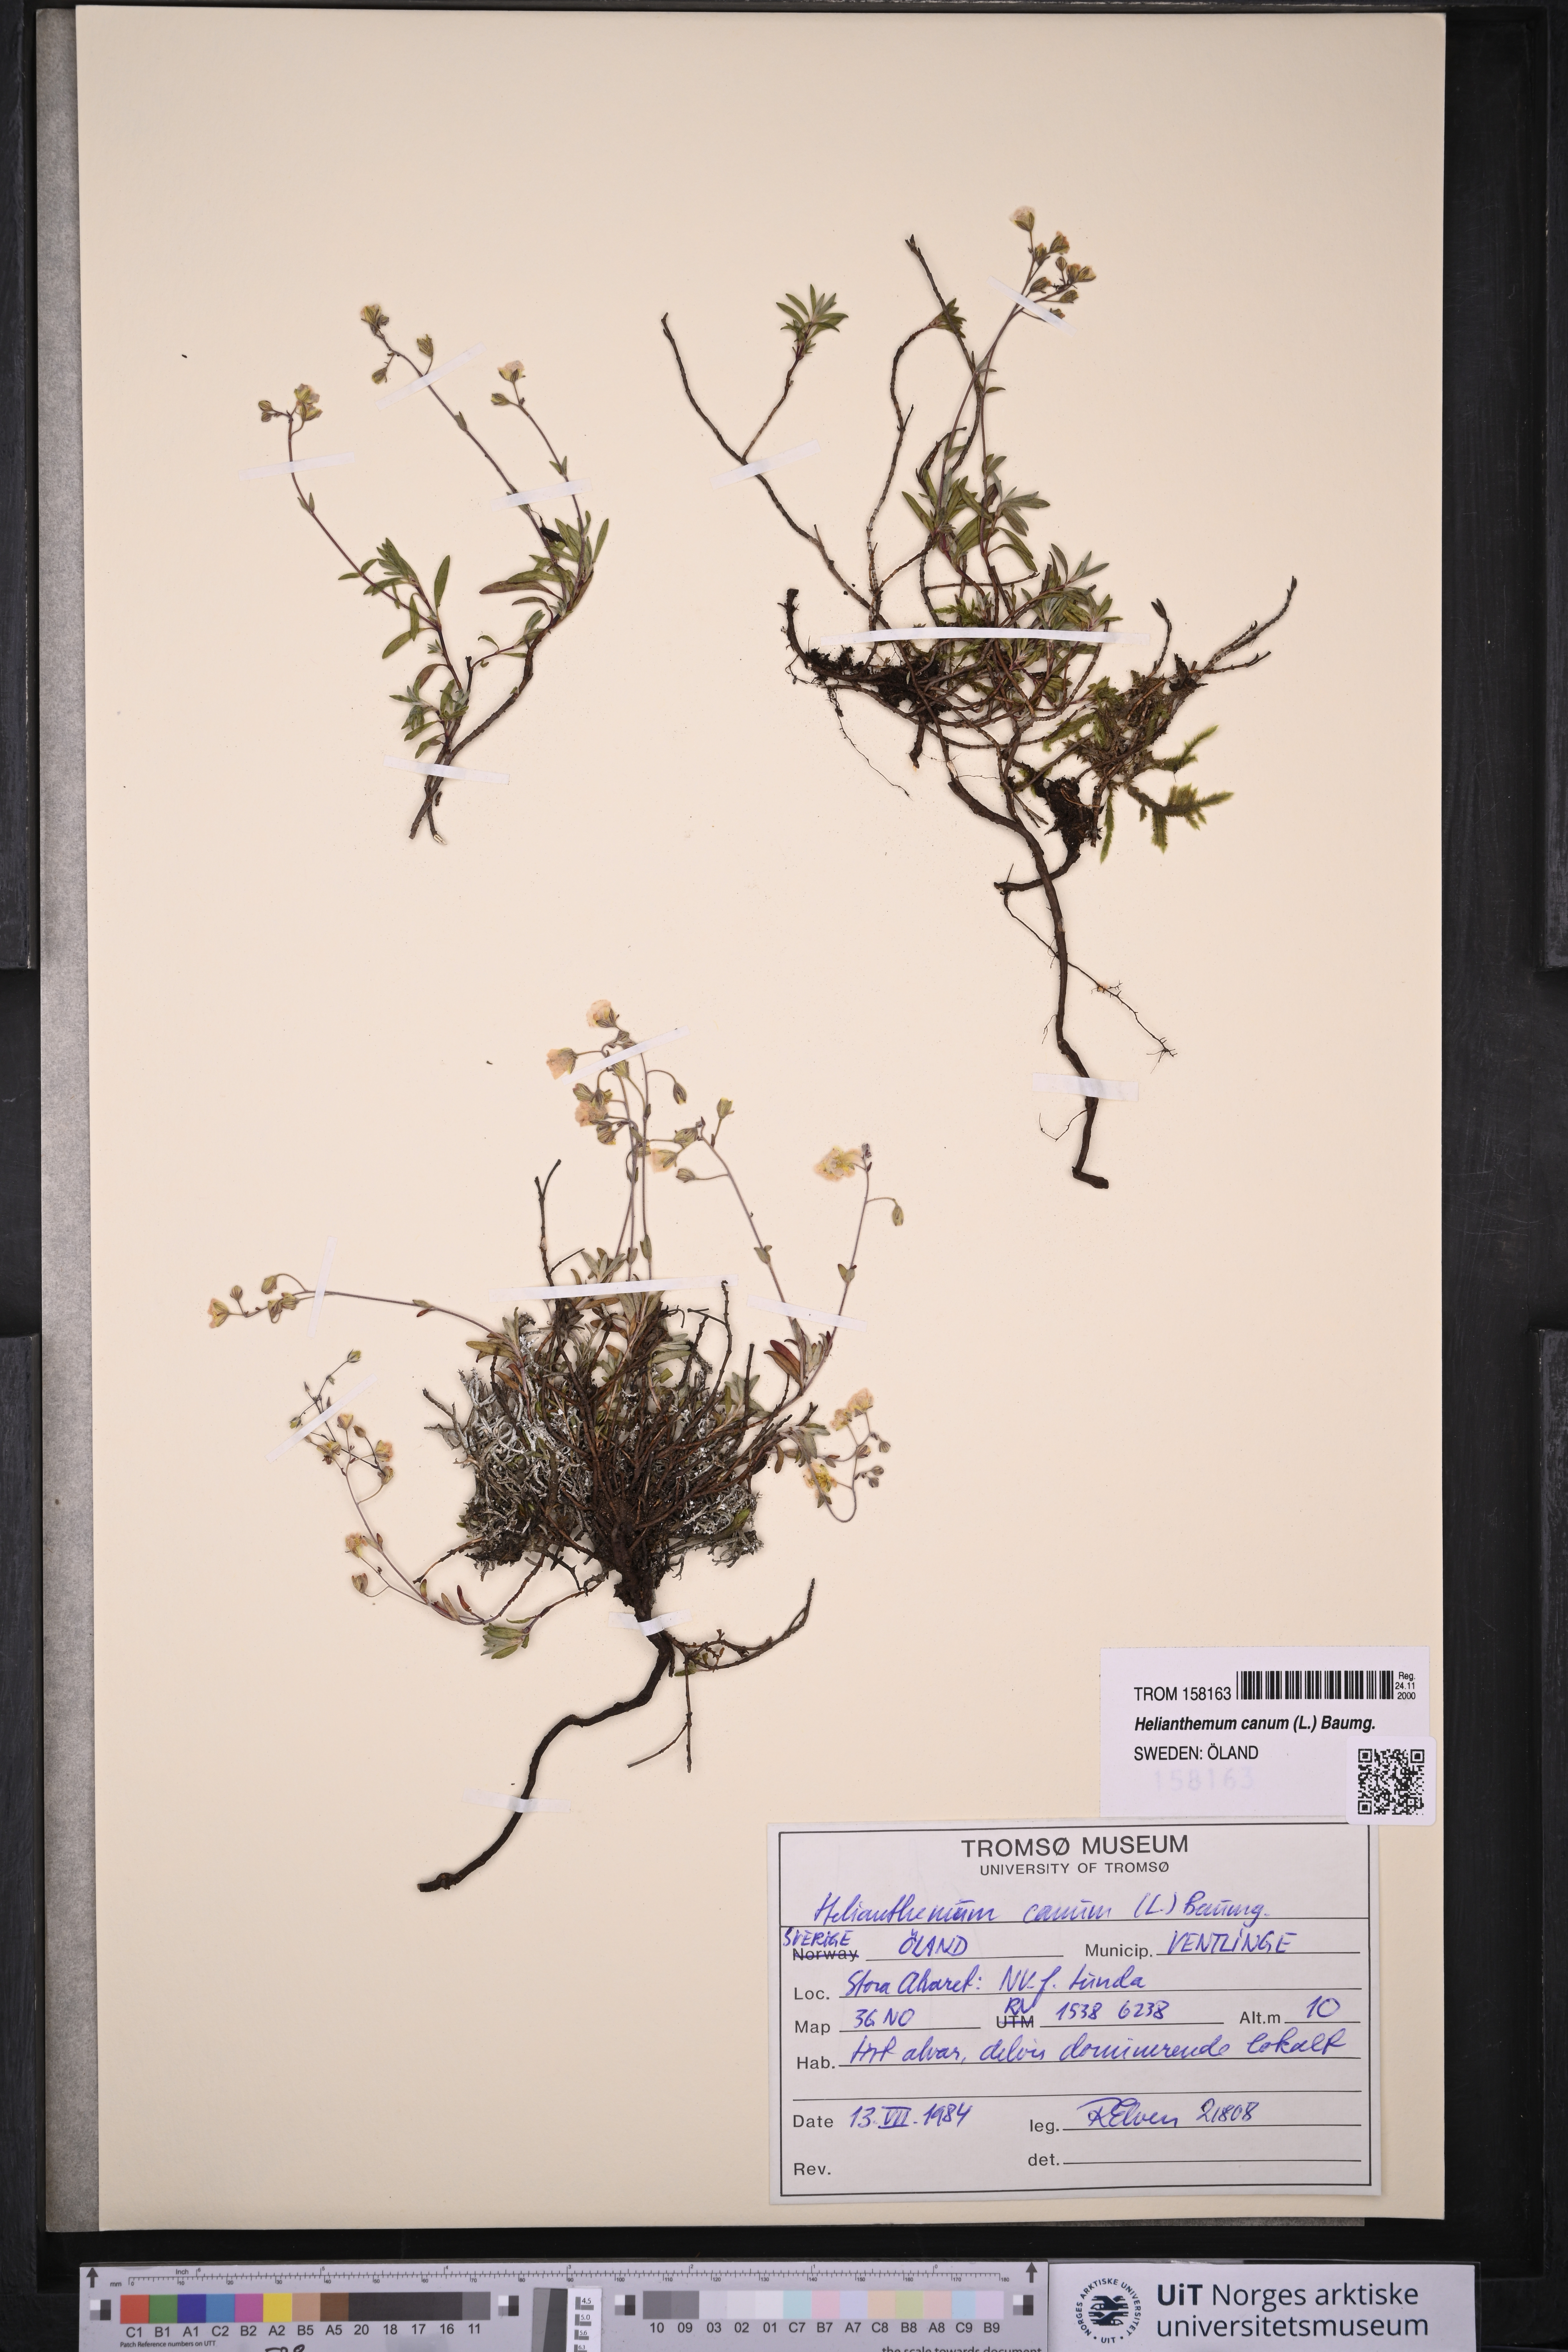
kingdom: Plantae
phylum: Tracheophyta
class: Magnoliopsida
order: Malvales
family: Cistaceae
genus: Helianthemum
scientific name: Helianthemum canum
